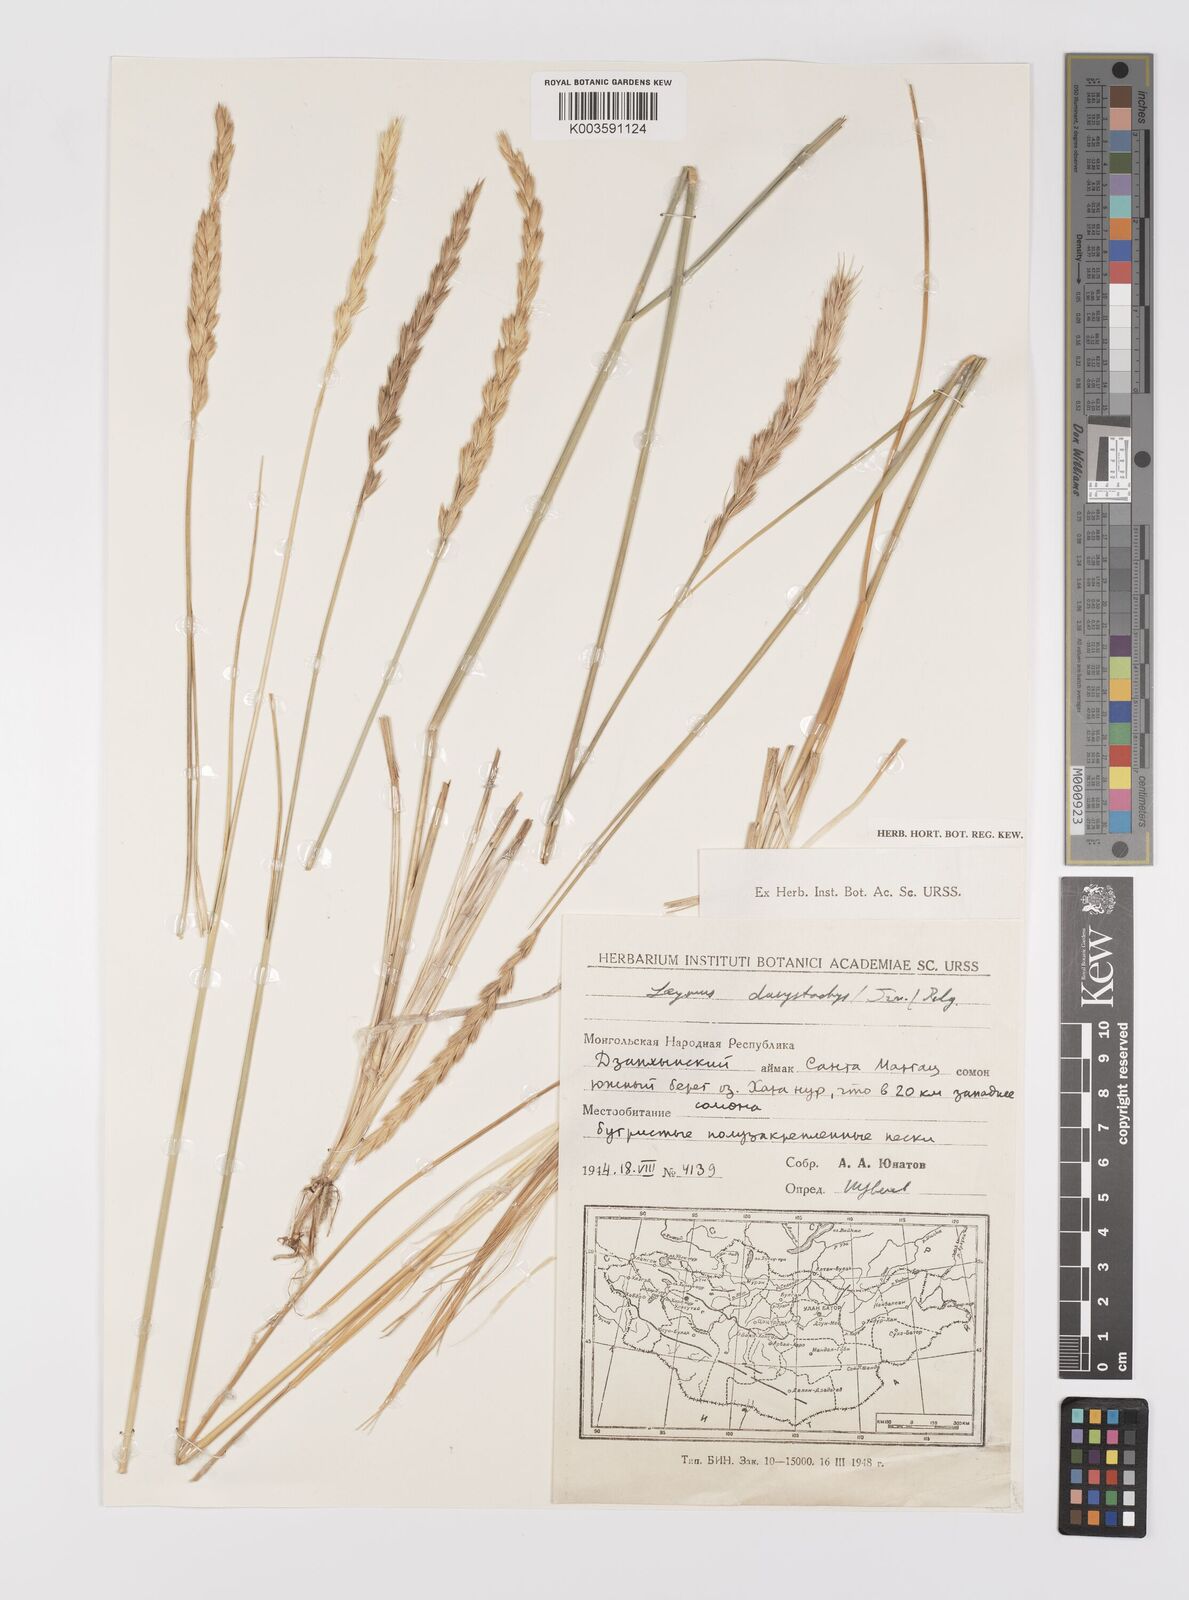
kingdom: Plantae
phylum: Tracheophyta
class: Liliopsida
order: Poales
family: Poaceae
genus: Leymus
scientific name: Leymus secalinus
